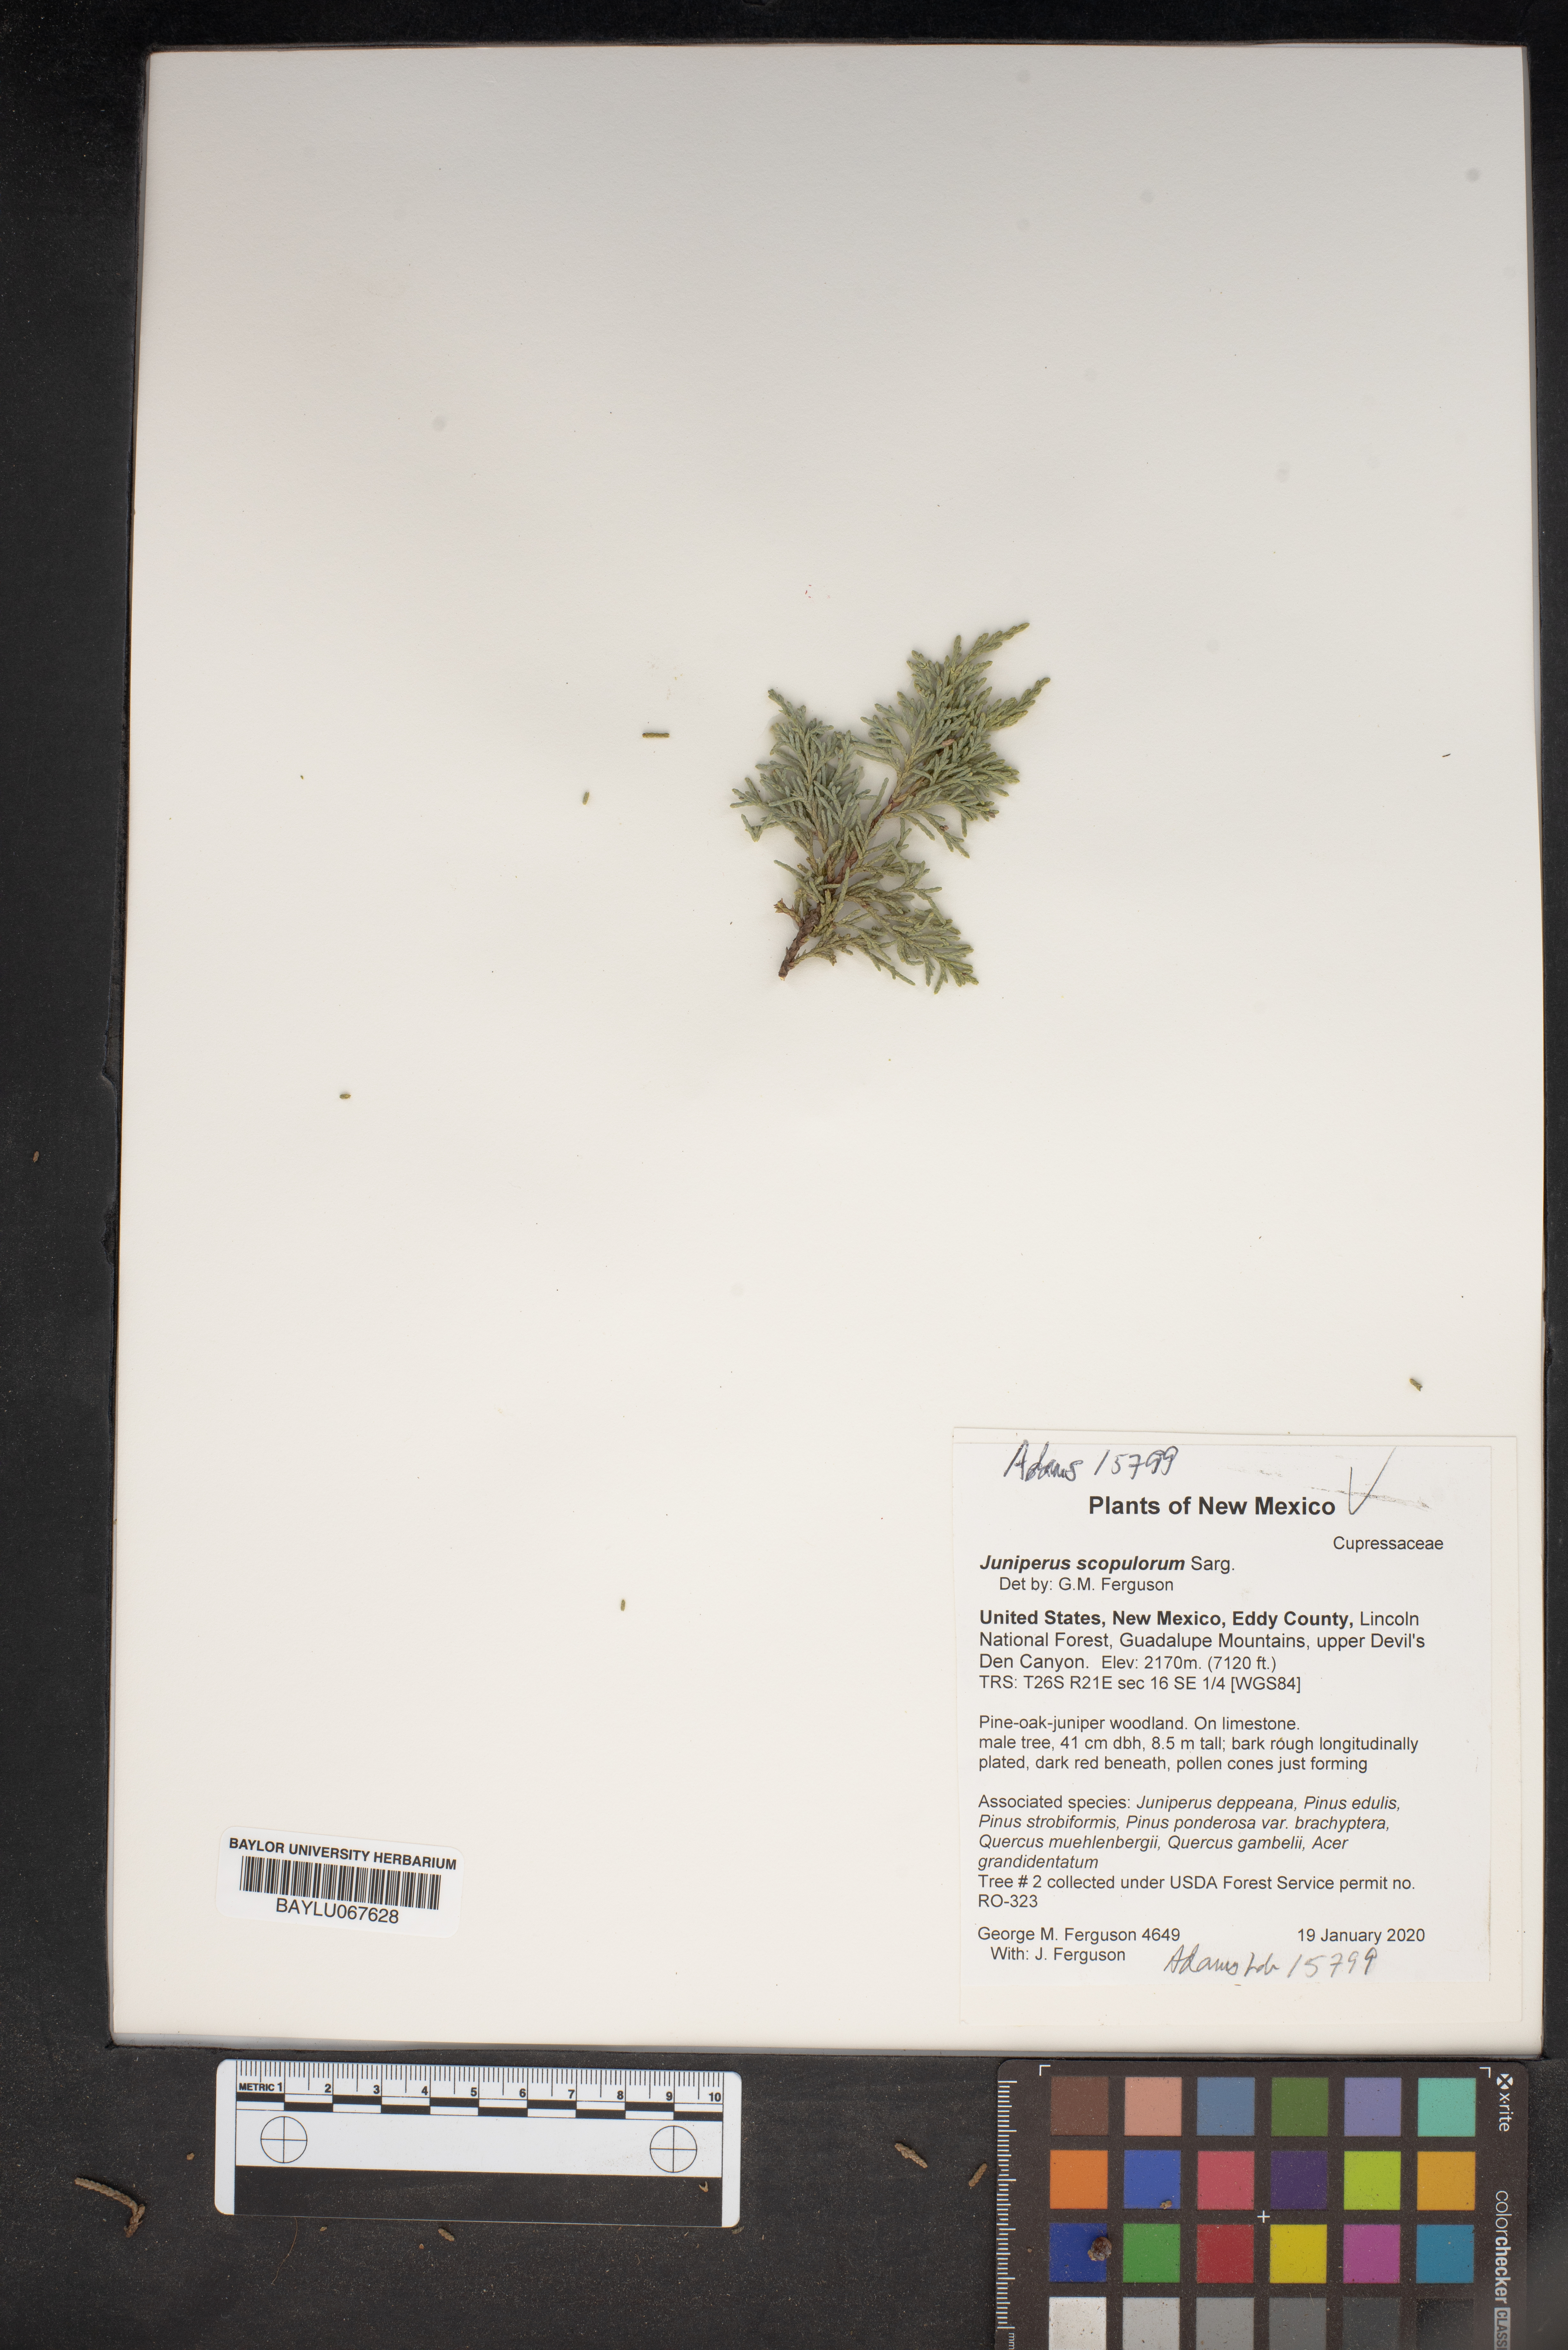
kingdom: Plantae
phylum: Tracheophyta
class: Pinopsida
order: Pinales
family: Cupressaceae
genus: Juniperus
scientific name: Juniperus scopulorum
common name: Rocky mountain juniper
